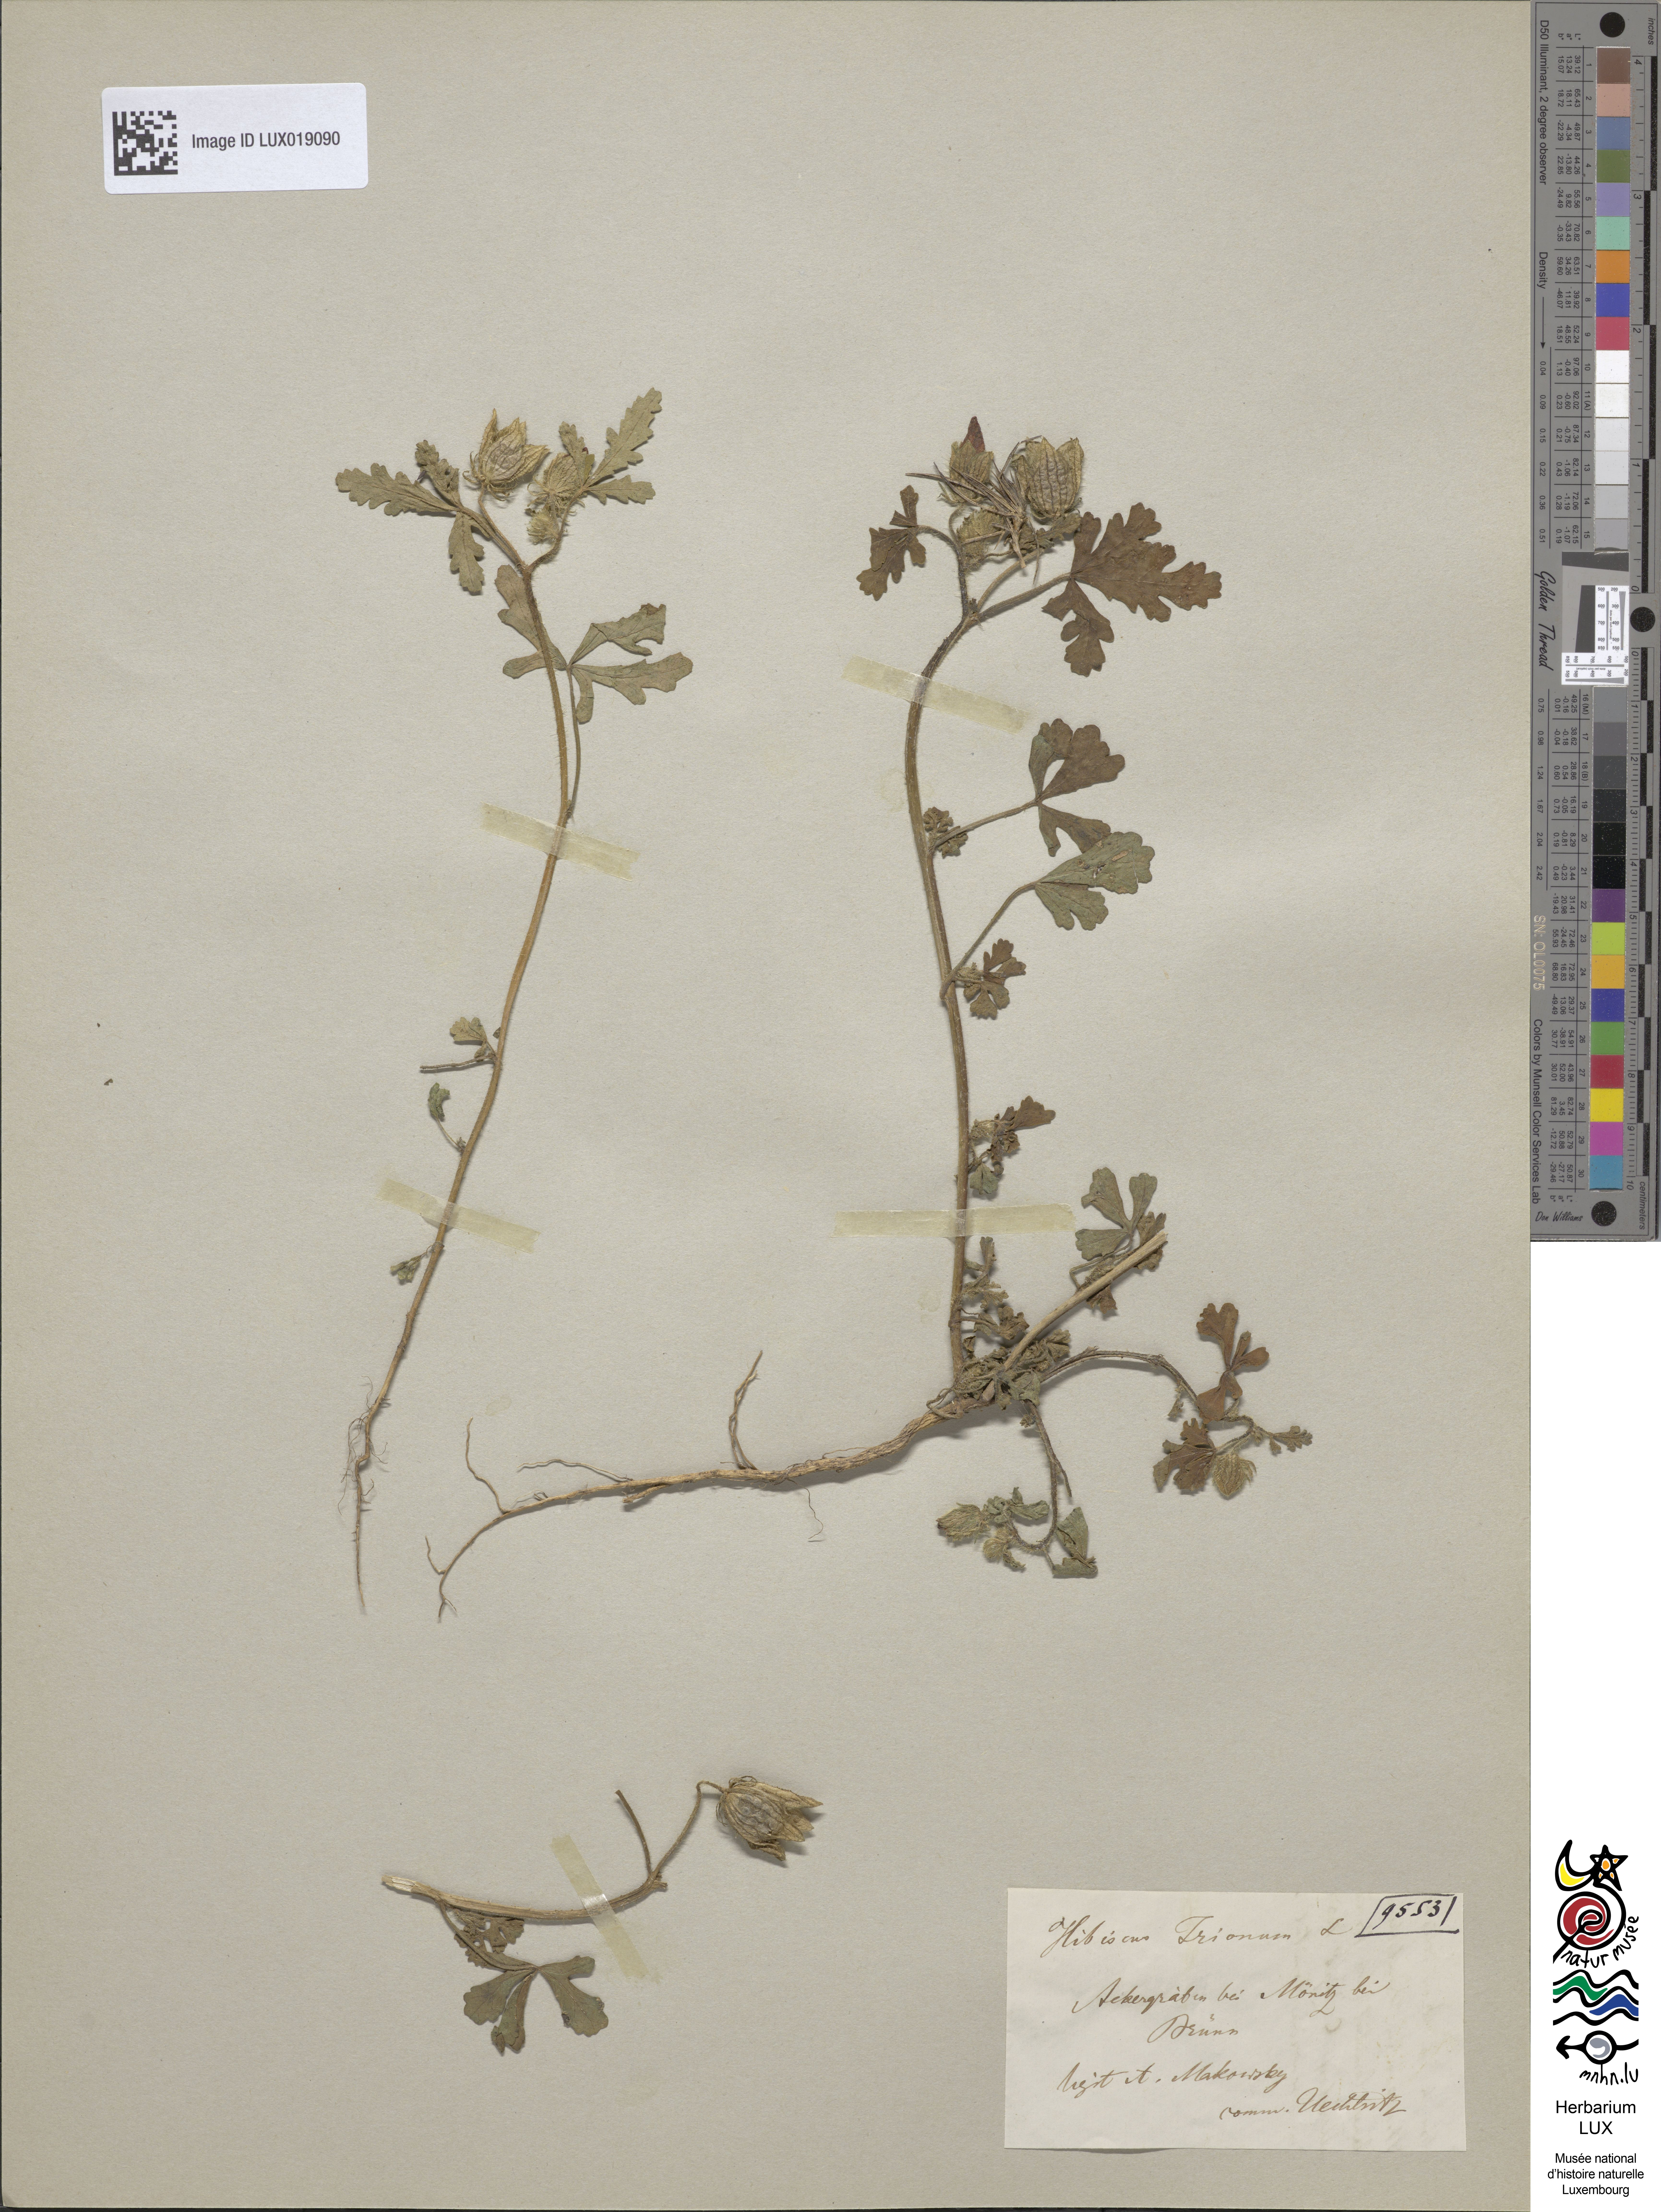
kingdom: Plantae
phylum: Tracheophyta
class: Magnoliopsida
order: Malvales
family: Malvaceae
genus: Hibiscus
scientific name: Hibiscus trionum
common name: Bladder ketmia
